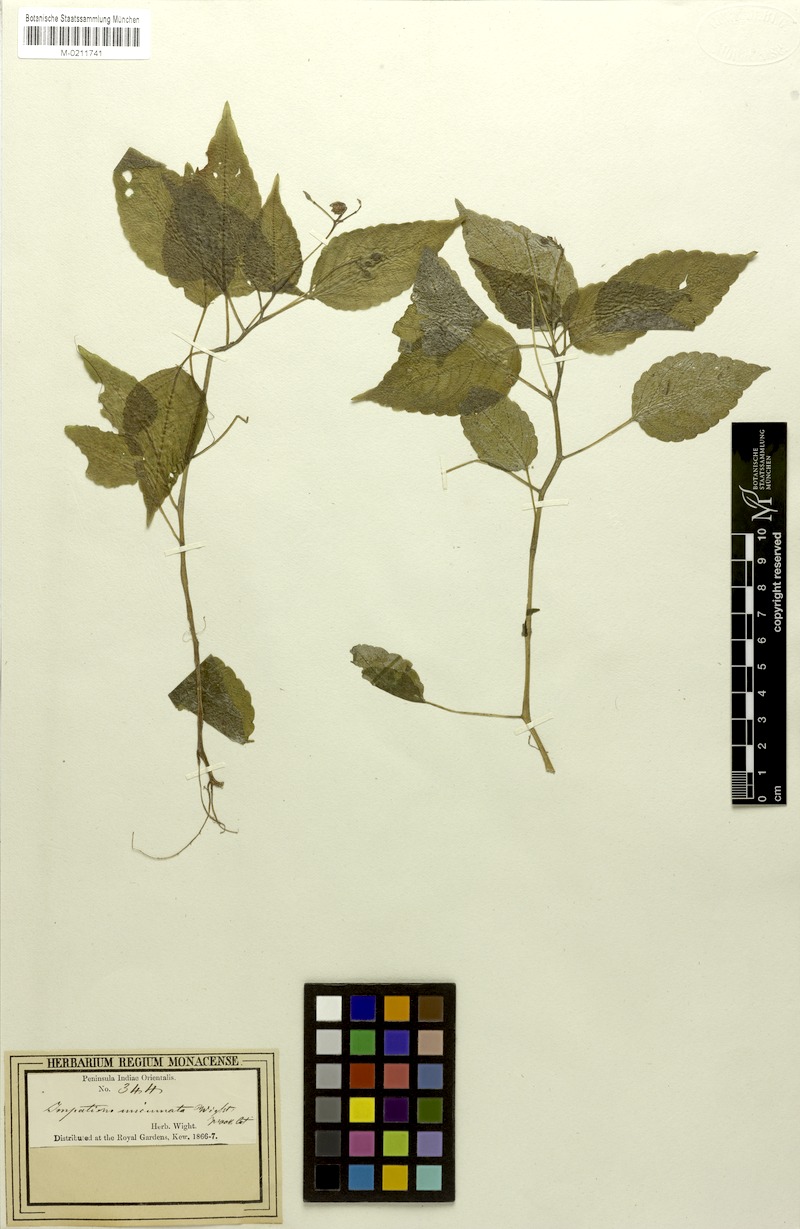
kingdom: Plantae
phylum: Tracheophyta
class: Magnoliopsida
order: Ericales
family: Balsaminaceae
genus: Impatiens
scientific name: Impatiens uncinata
